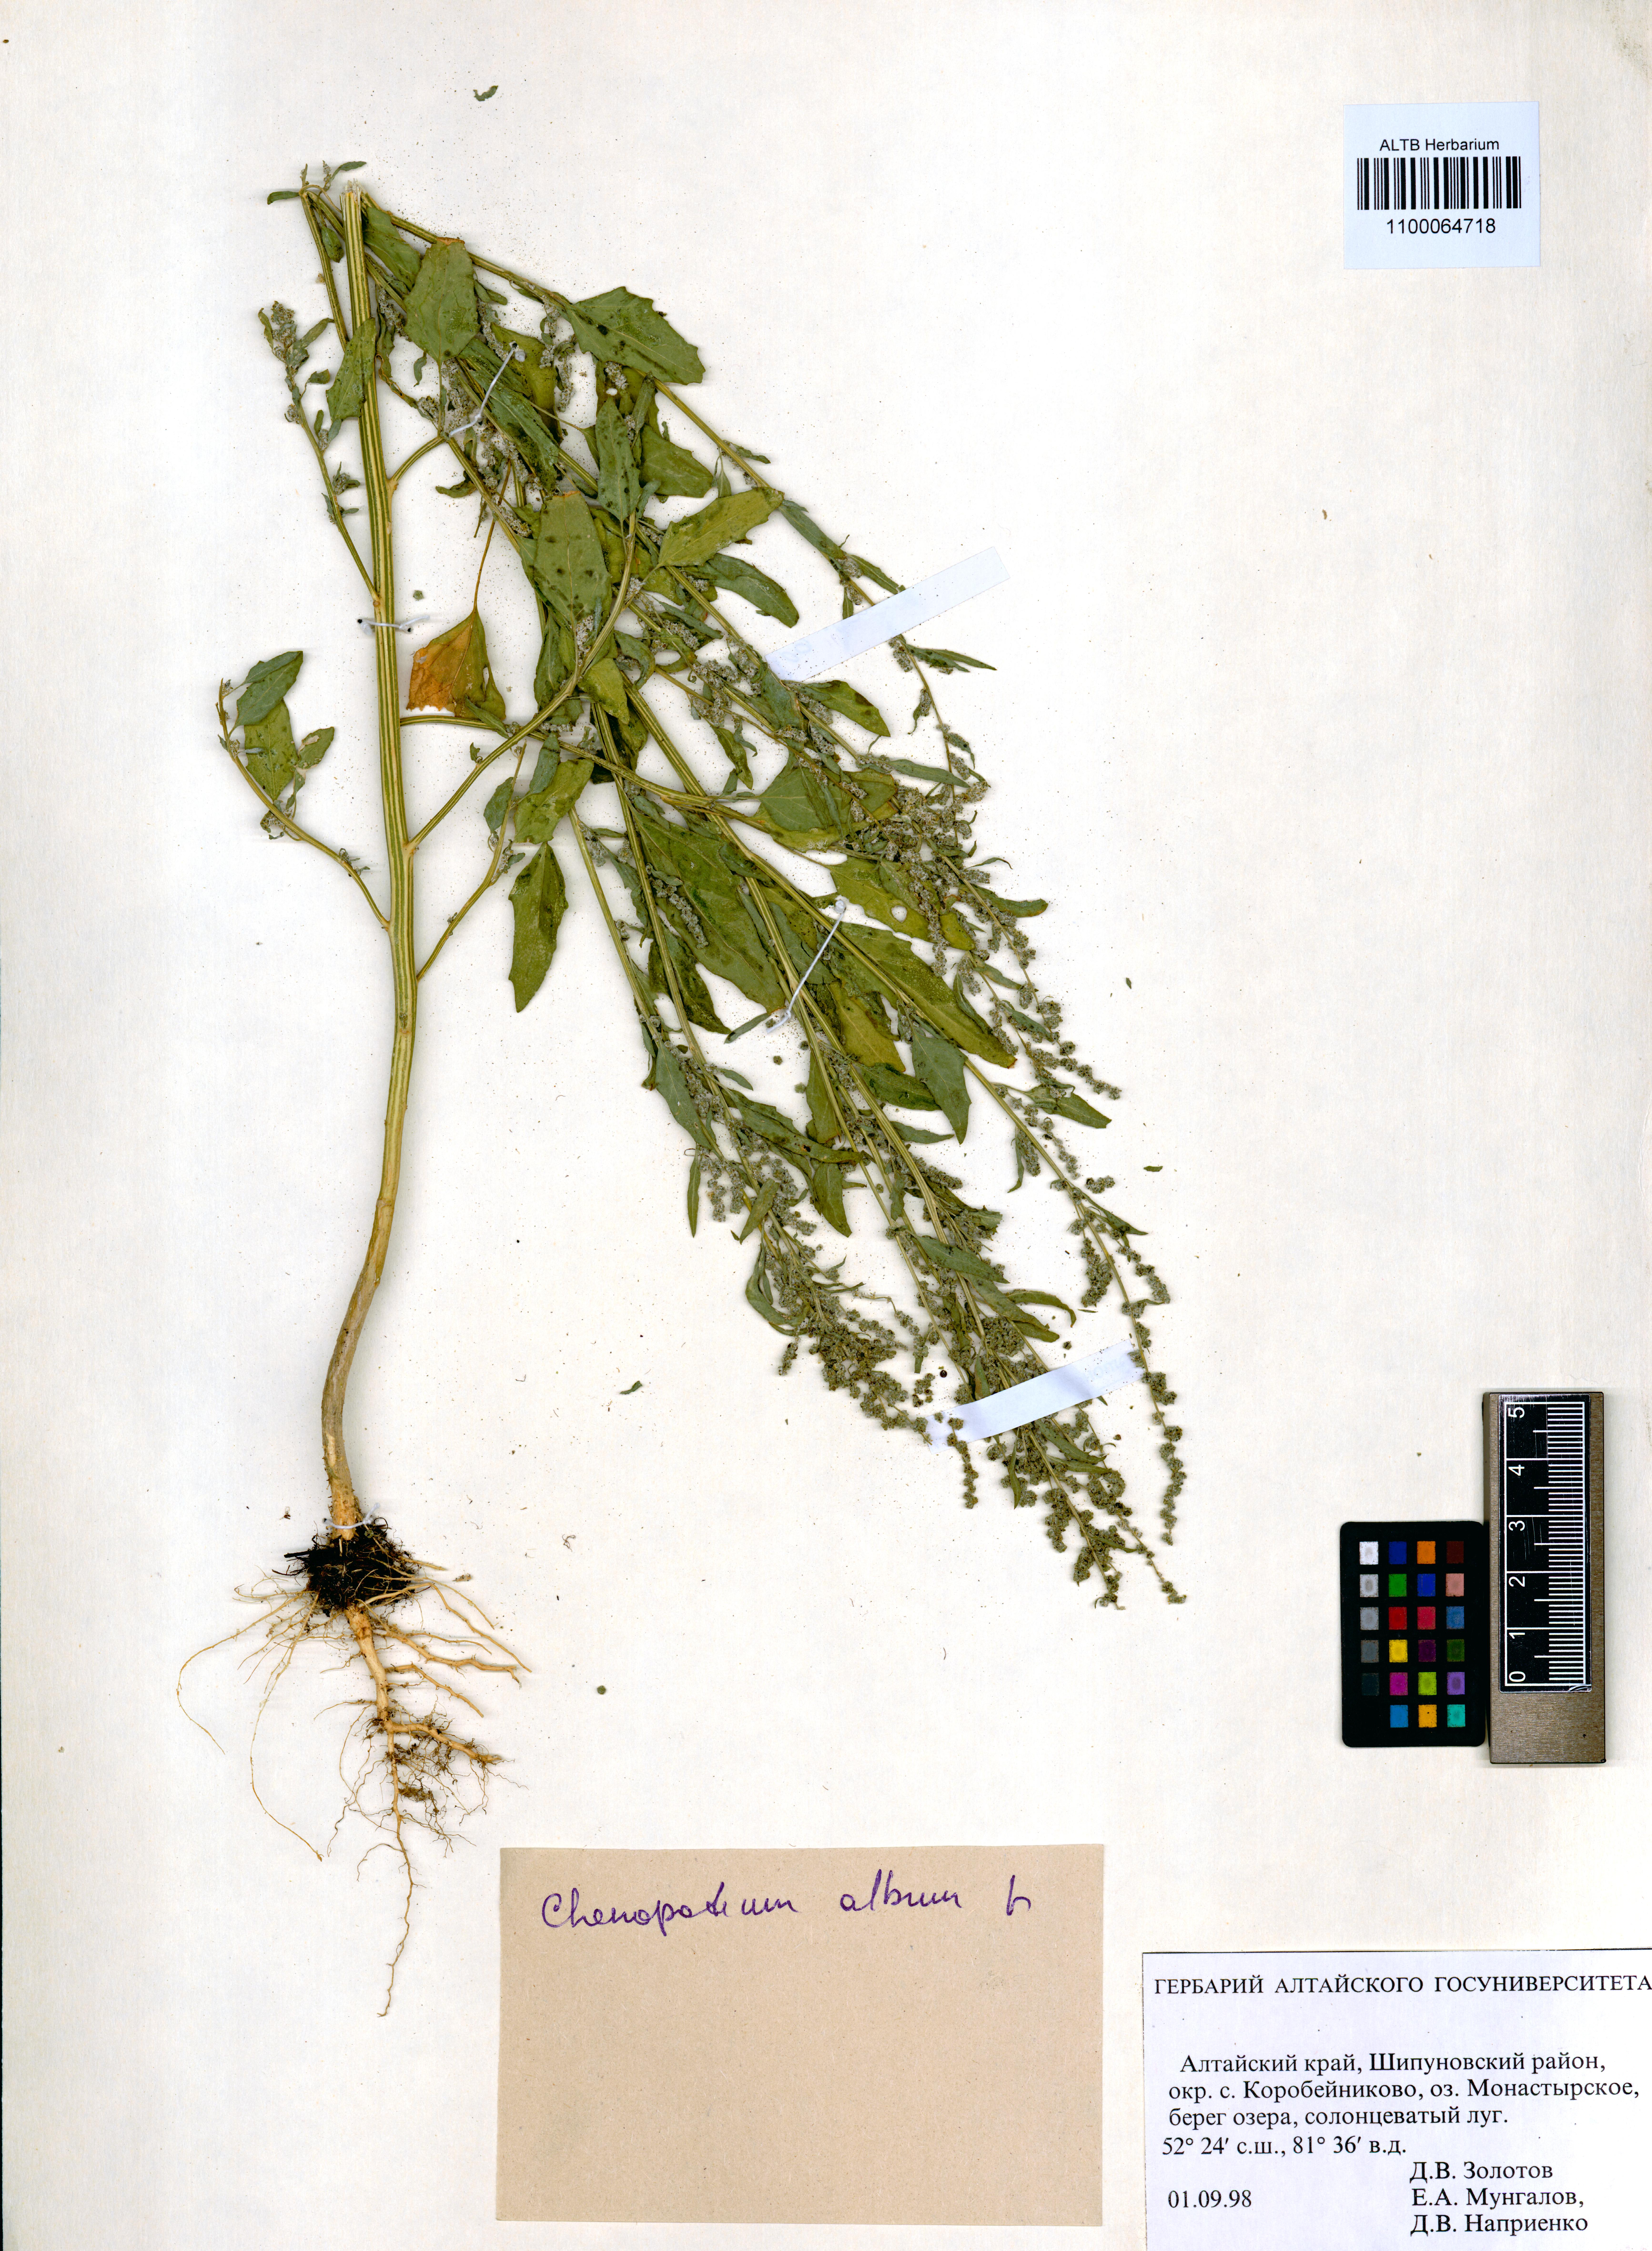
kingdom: Plantae
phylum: Tracheophyta
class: Magnoliopsida
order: Caryophyllales
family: Amaranthaceae
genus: Chenopodium
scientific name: Chenopodium album
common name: Fat-hen
